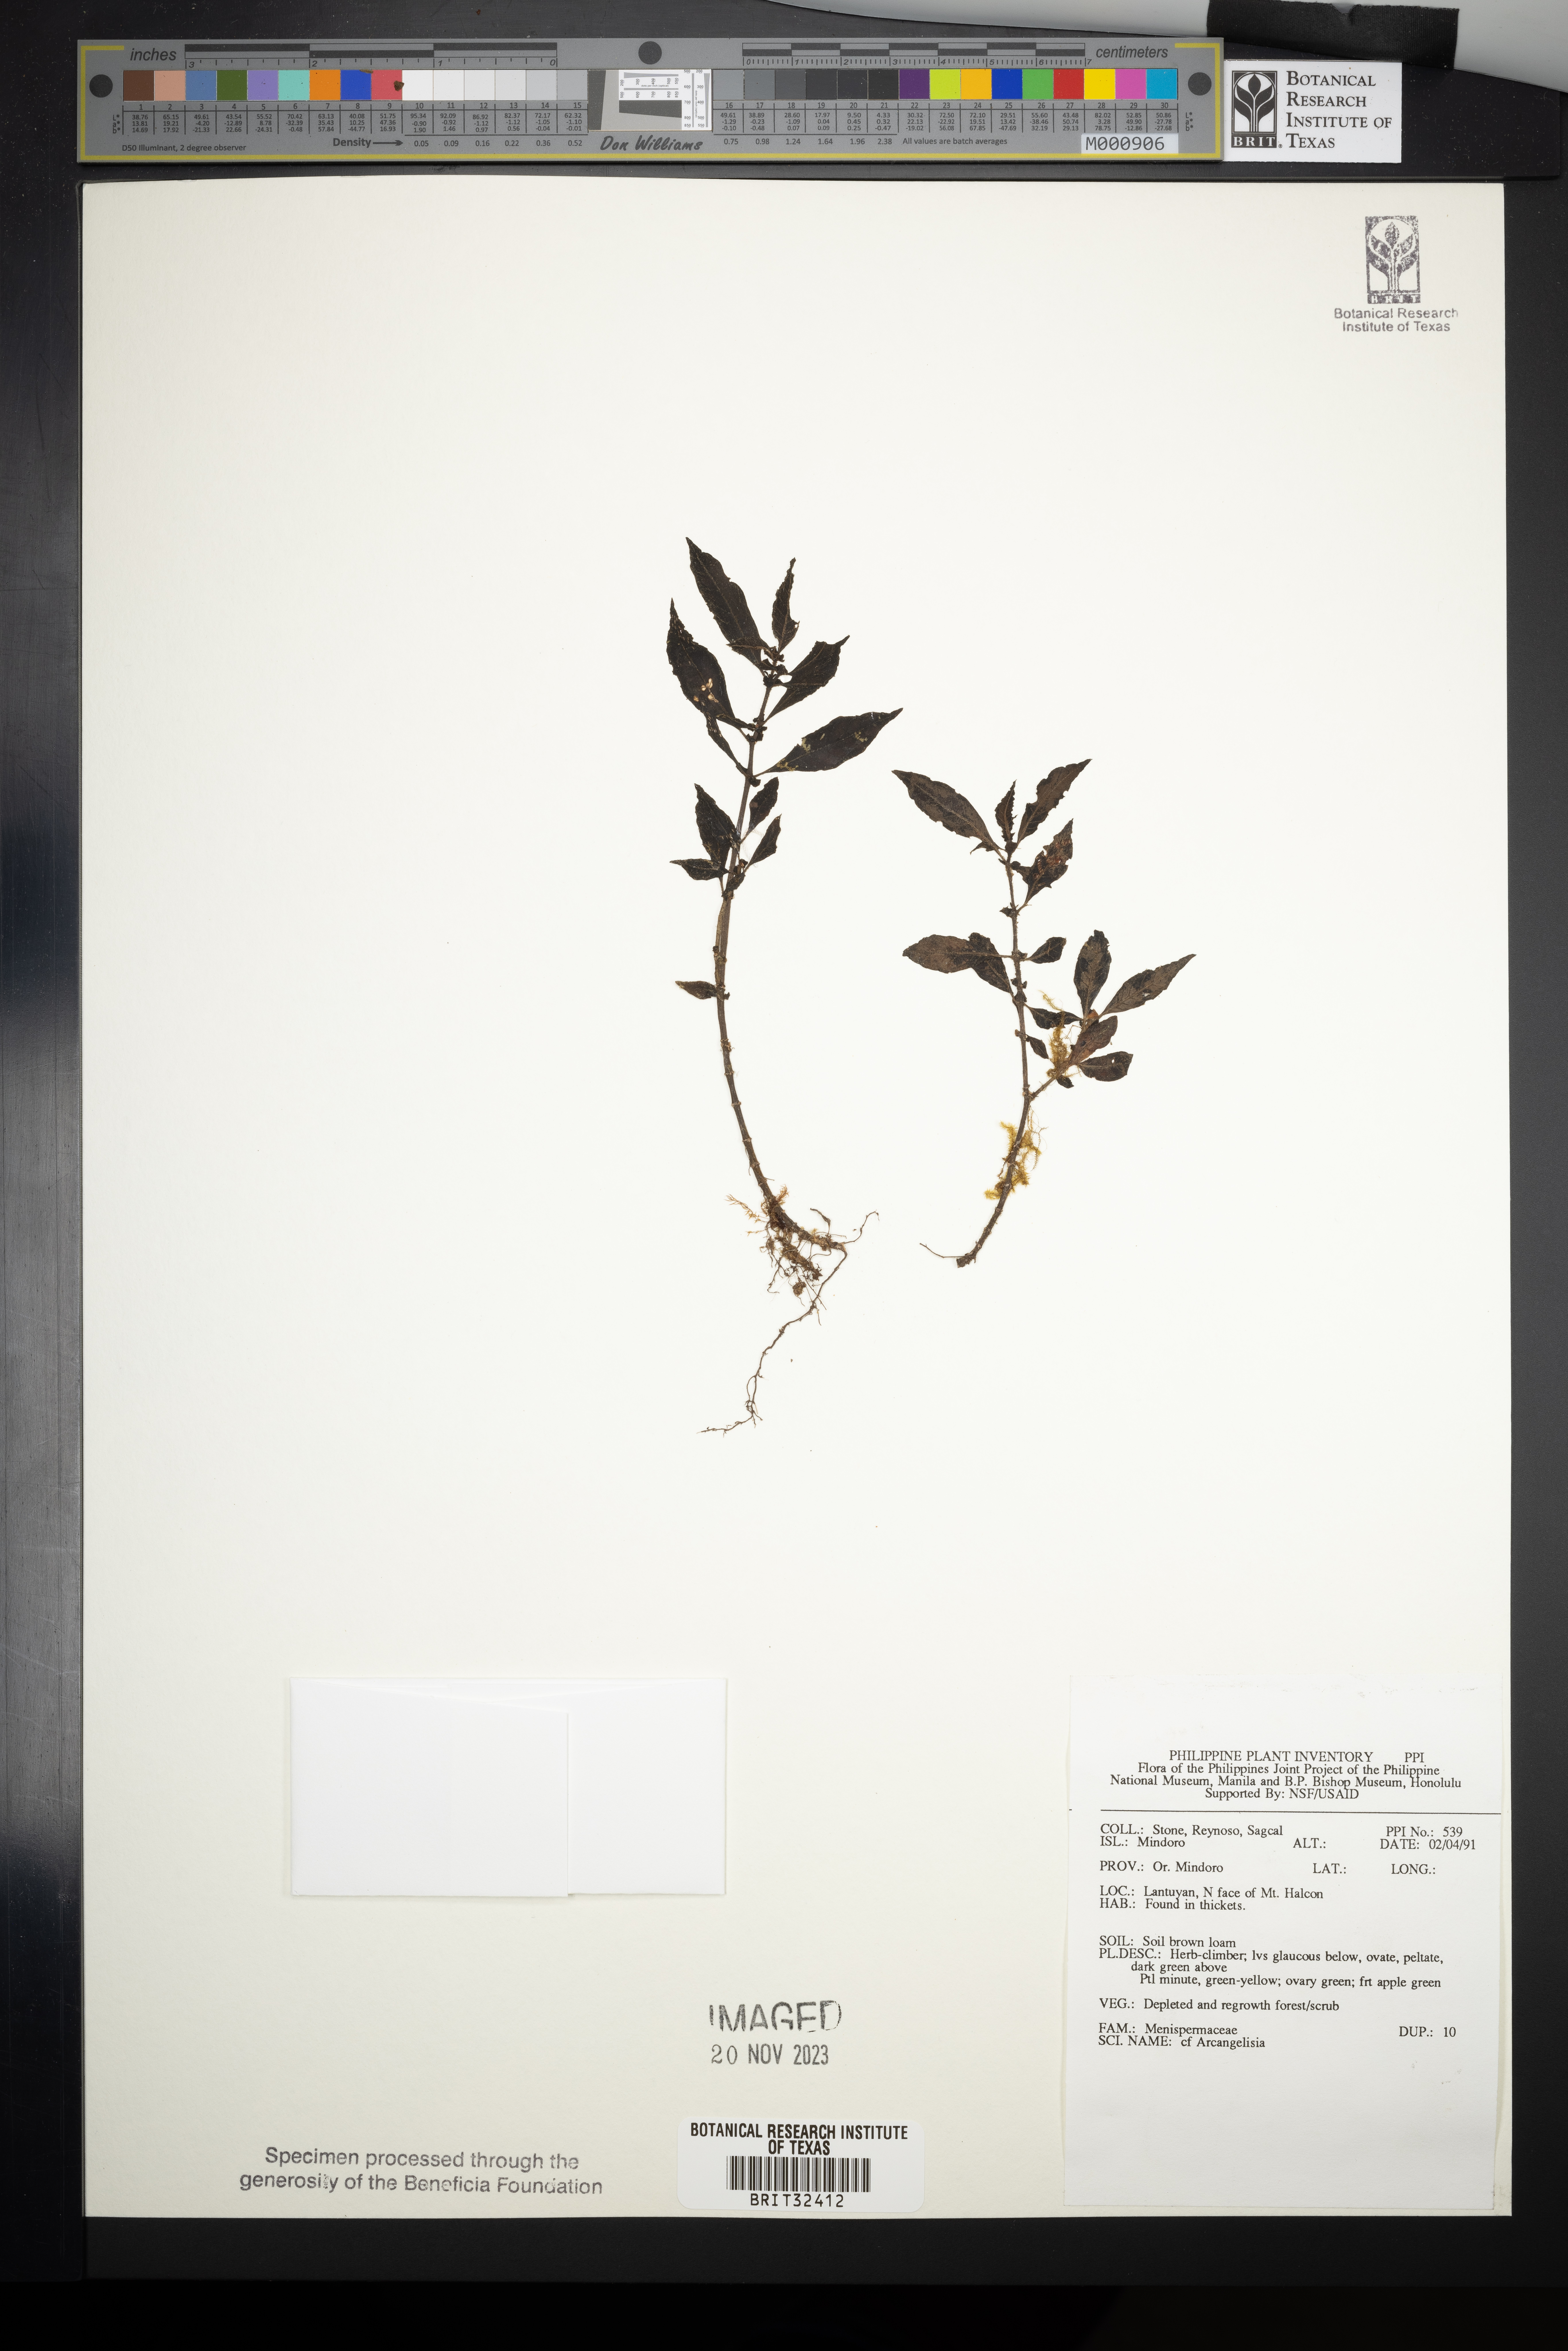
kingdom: Plantae
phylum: Tracheophyta
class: Magnoliopsida
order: Ranunculales
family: Menispermaceae
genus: Arcangelisia
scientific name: Arcangelisia
